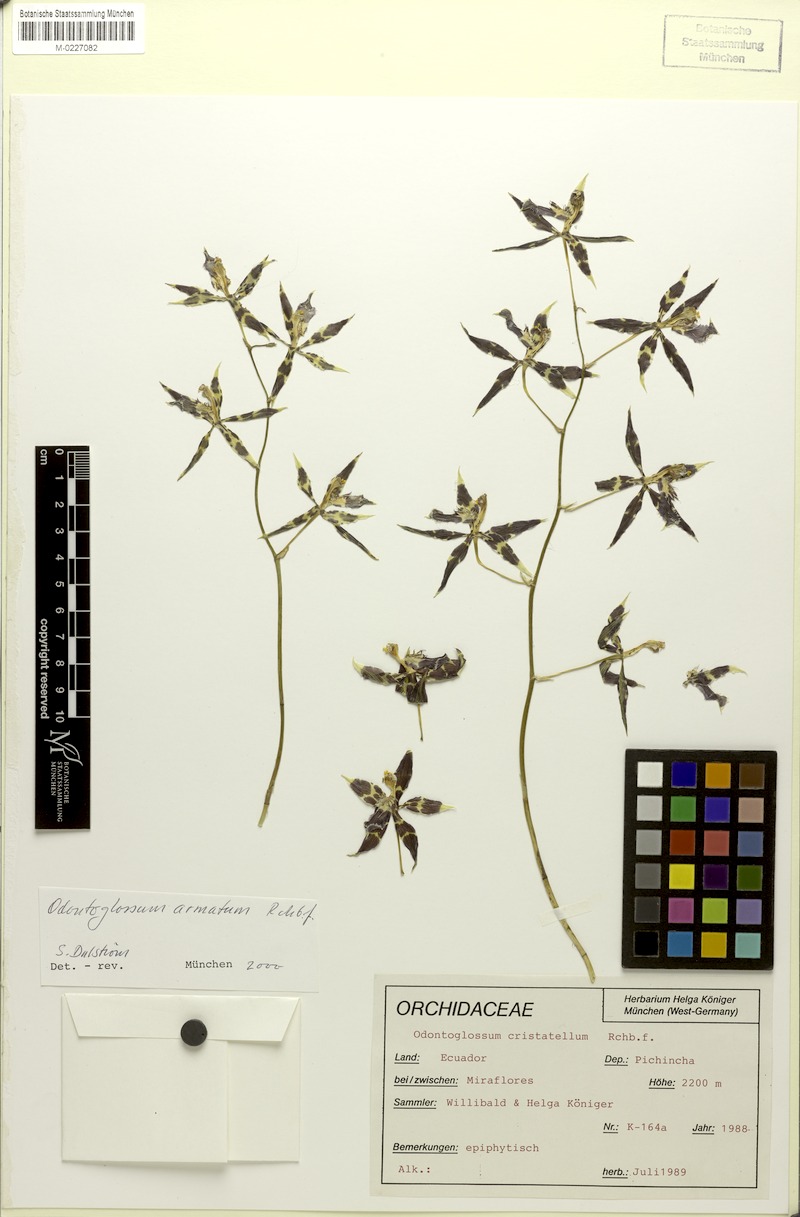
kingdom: Plantae
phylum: Tracheophyta
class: Liliopsida
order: Asparagales
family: Orchidaceae
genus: Oncidium
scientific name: Oncidium armatum
